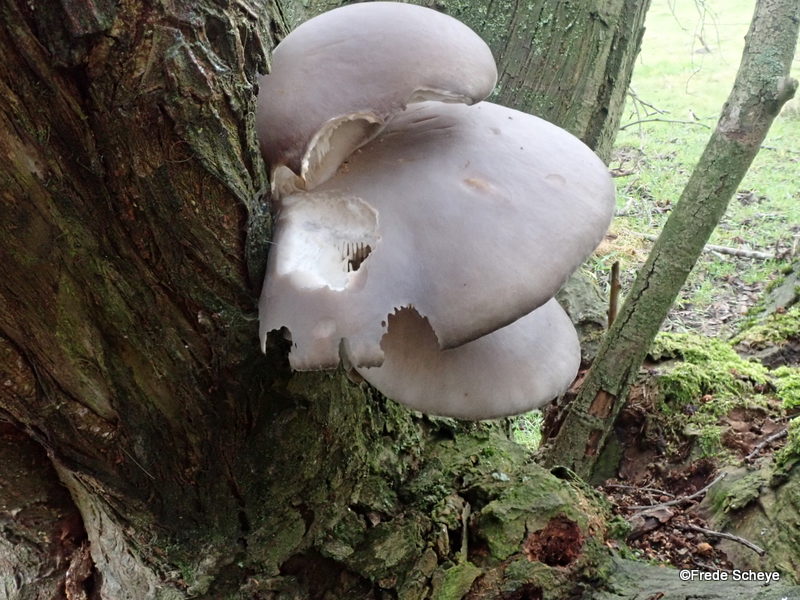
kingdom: Fungi
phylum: Basidiomycota
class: Agaricomycetes
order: Agaricales
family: Pleurotaceae
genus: Pleurotus
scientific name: Pleurotus ostreatus
